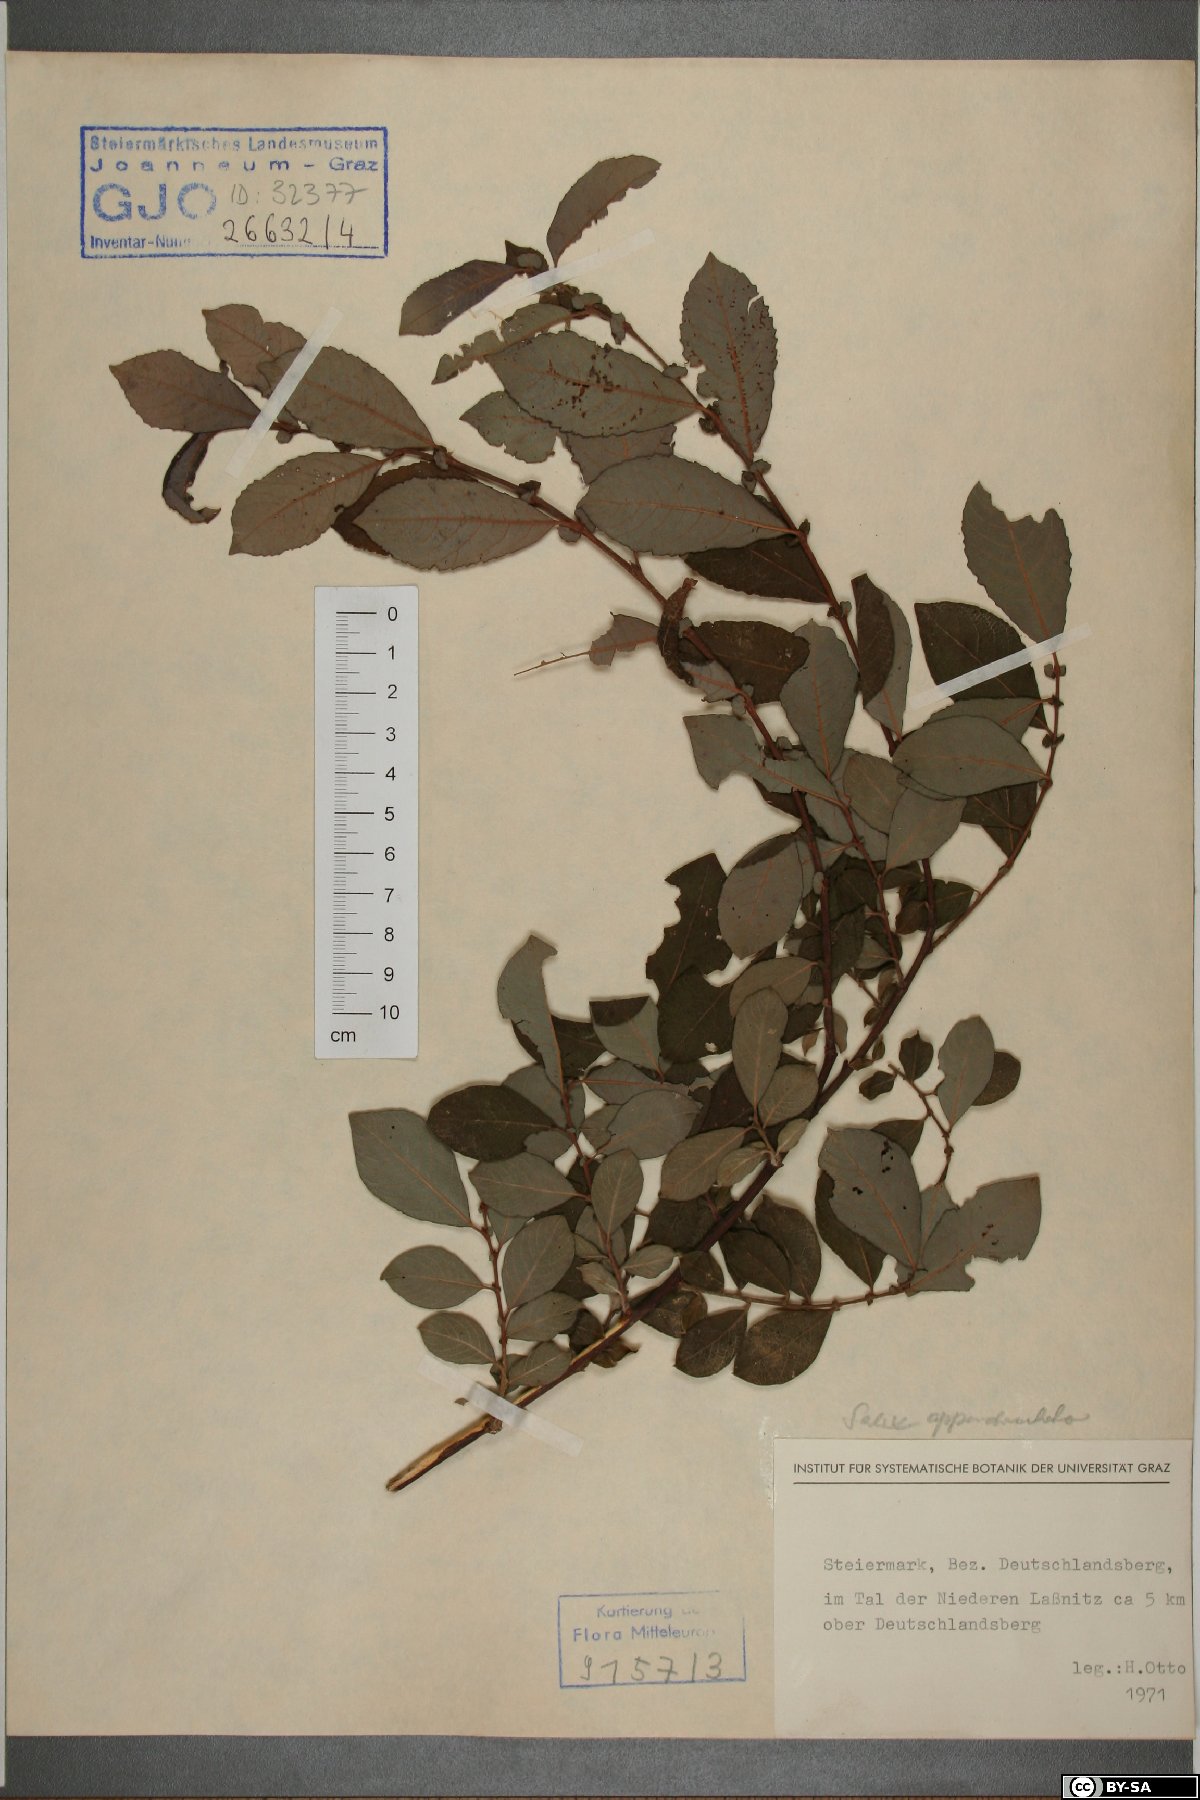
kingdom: Plantae
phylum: Tracheophyta
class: Magnoliopsida
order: Malpighiales
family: Salicaceae
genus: Salix
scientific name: Salix appendiculata
